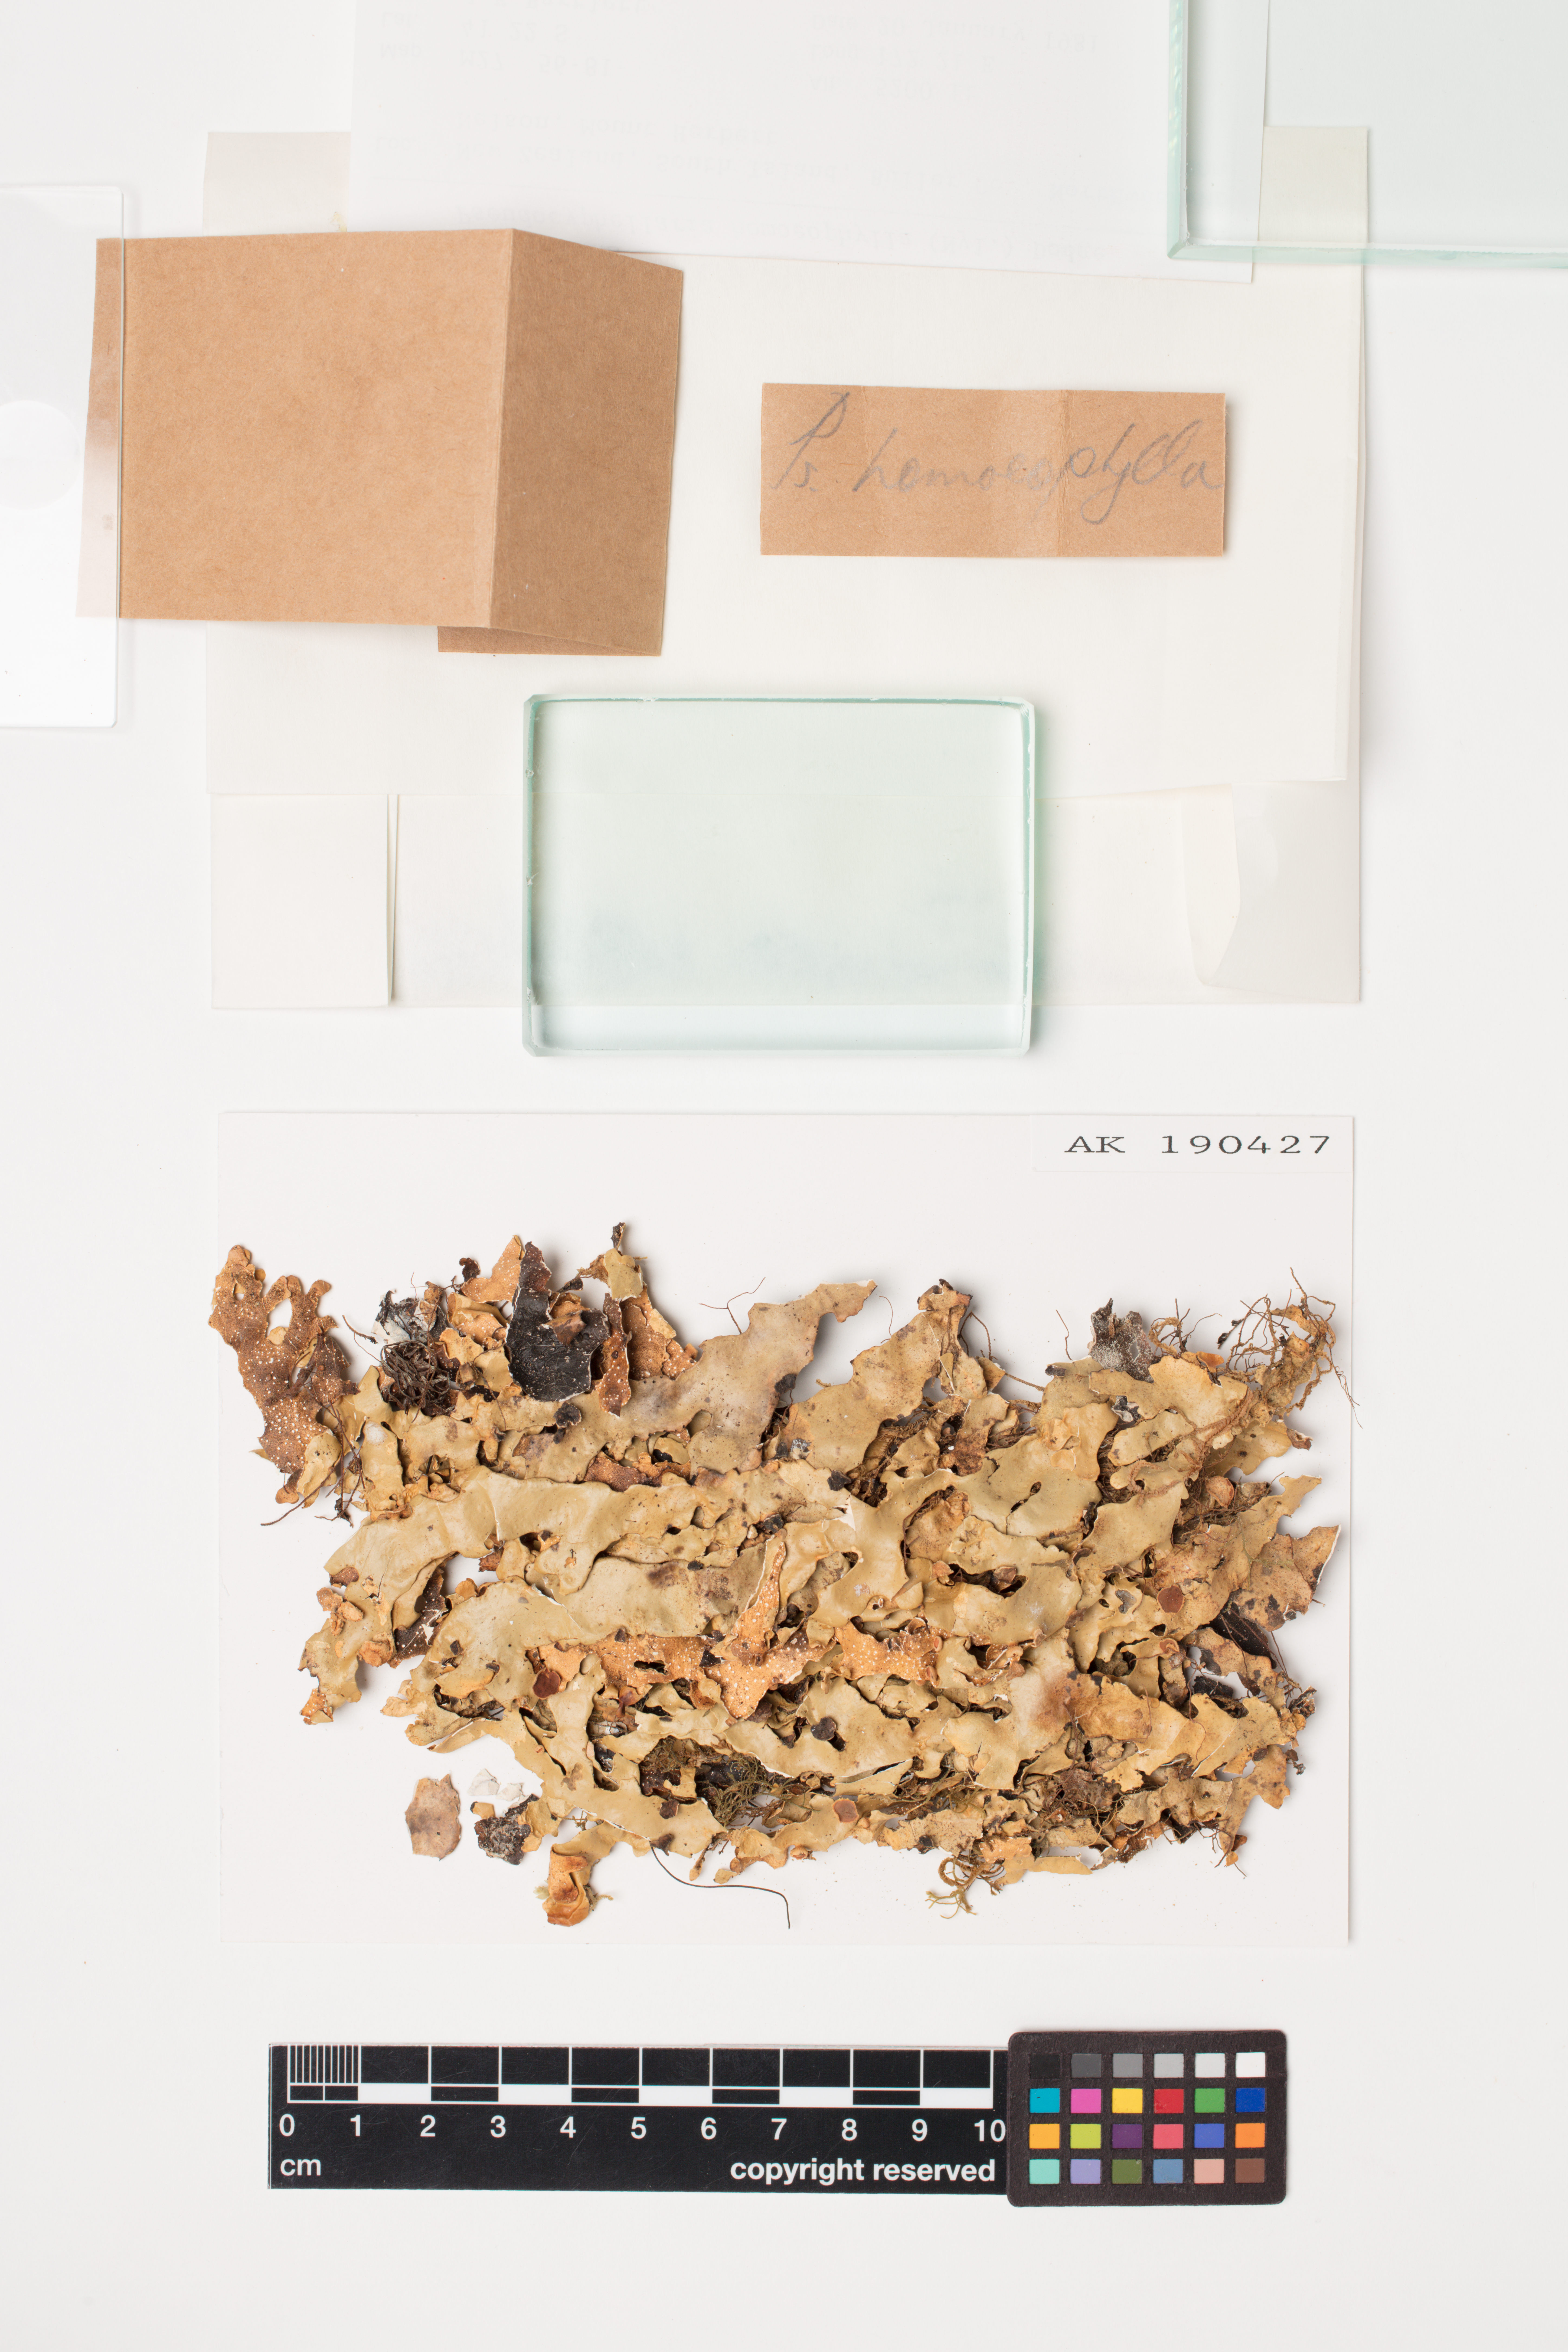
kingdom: Fungi
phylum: Ascomycota
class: Lecanoromycetes
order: Peltigerales
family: Lobariaceae
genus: Pseudocyphellaria
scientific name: Pseudocyphellaria homeophylla
